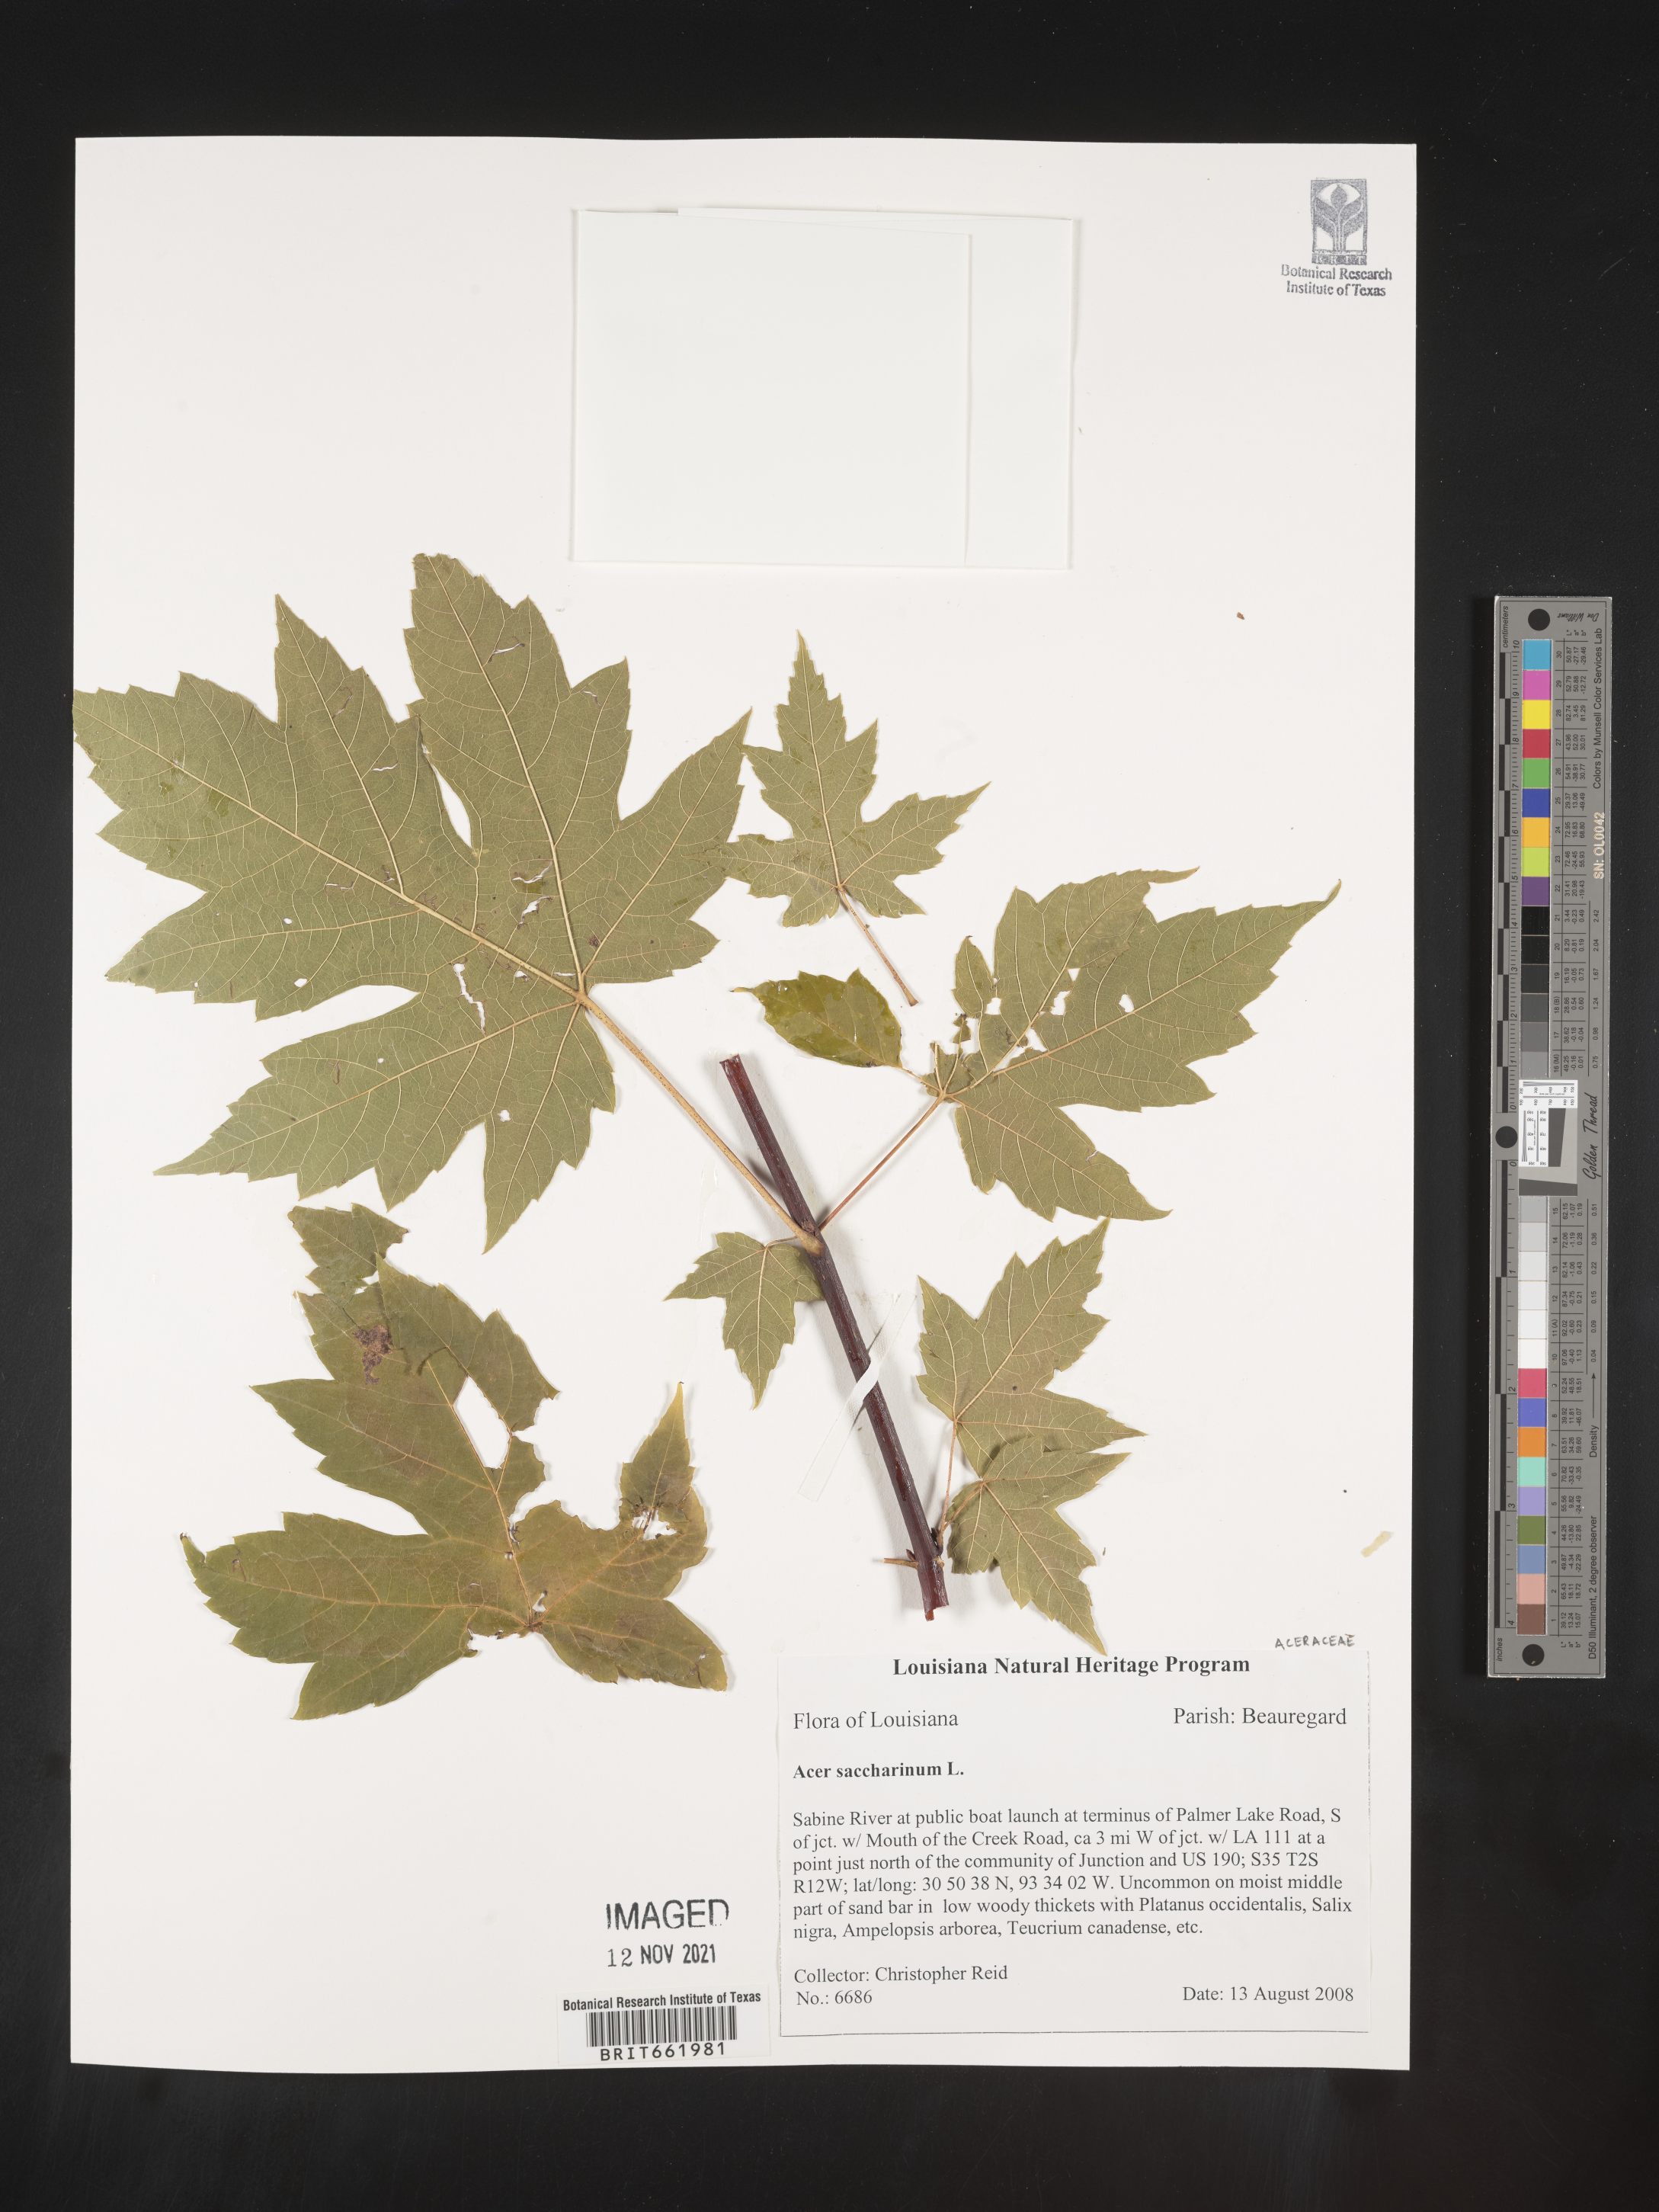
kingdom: Plantae
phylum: Tracheophyta
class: Magnoliopsida
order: Sapindales
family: Sapindaceae
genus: Acer
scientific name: Acer saccharum
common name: Sugar maple
